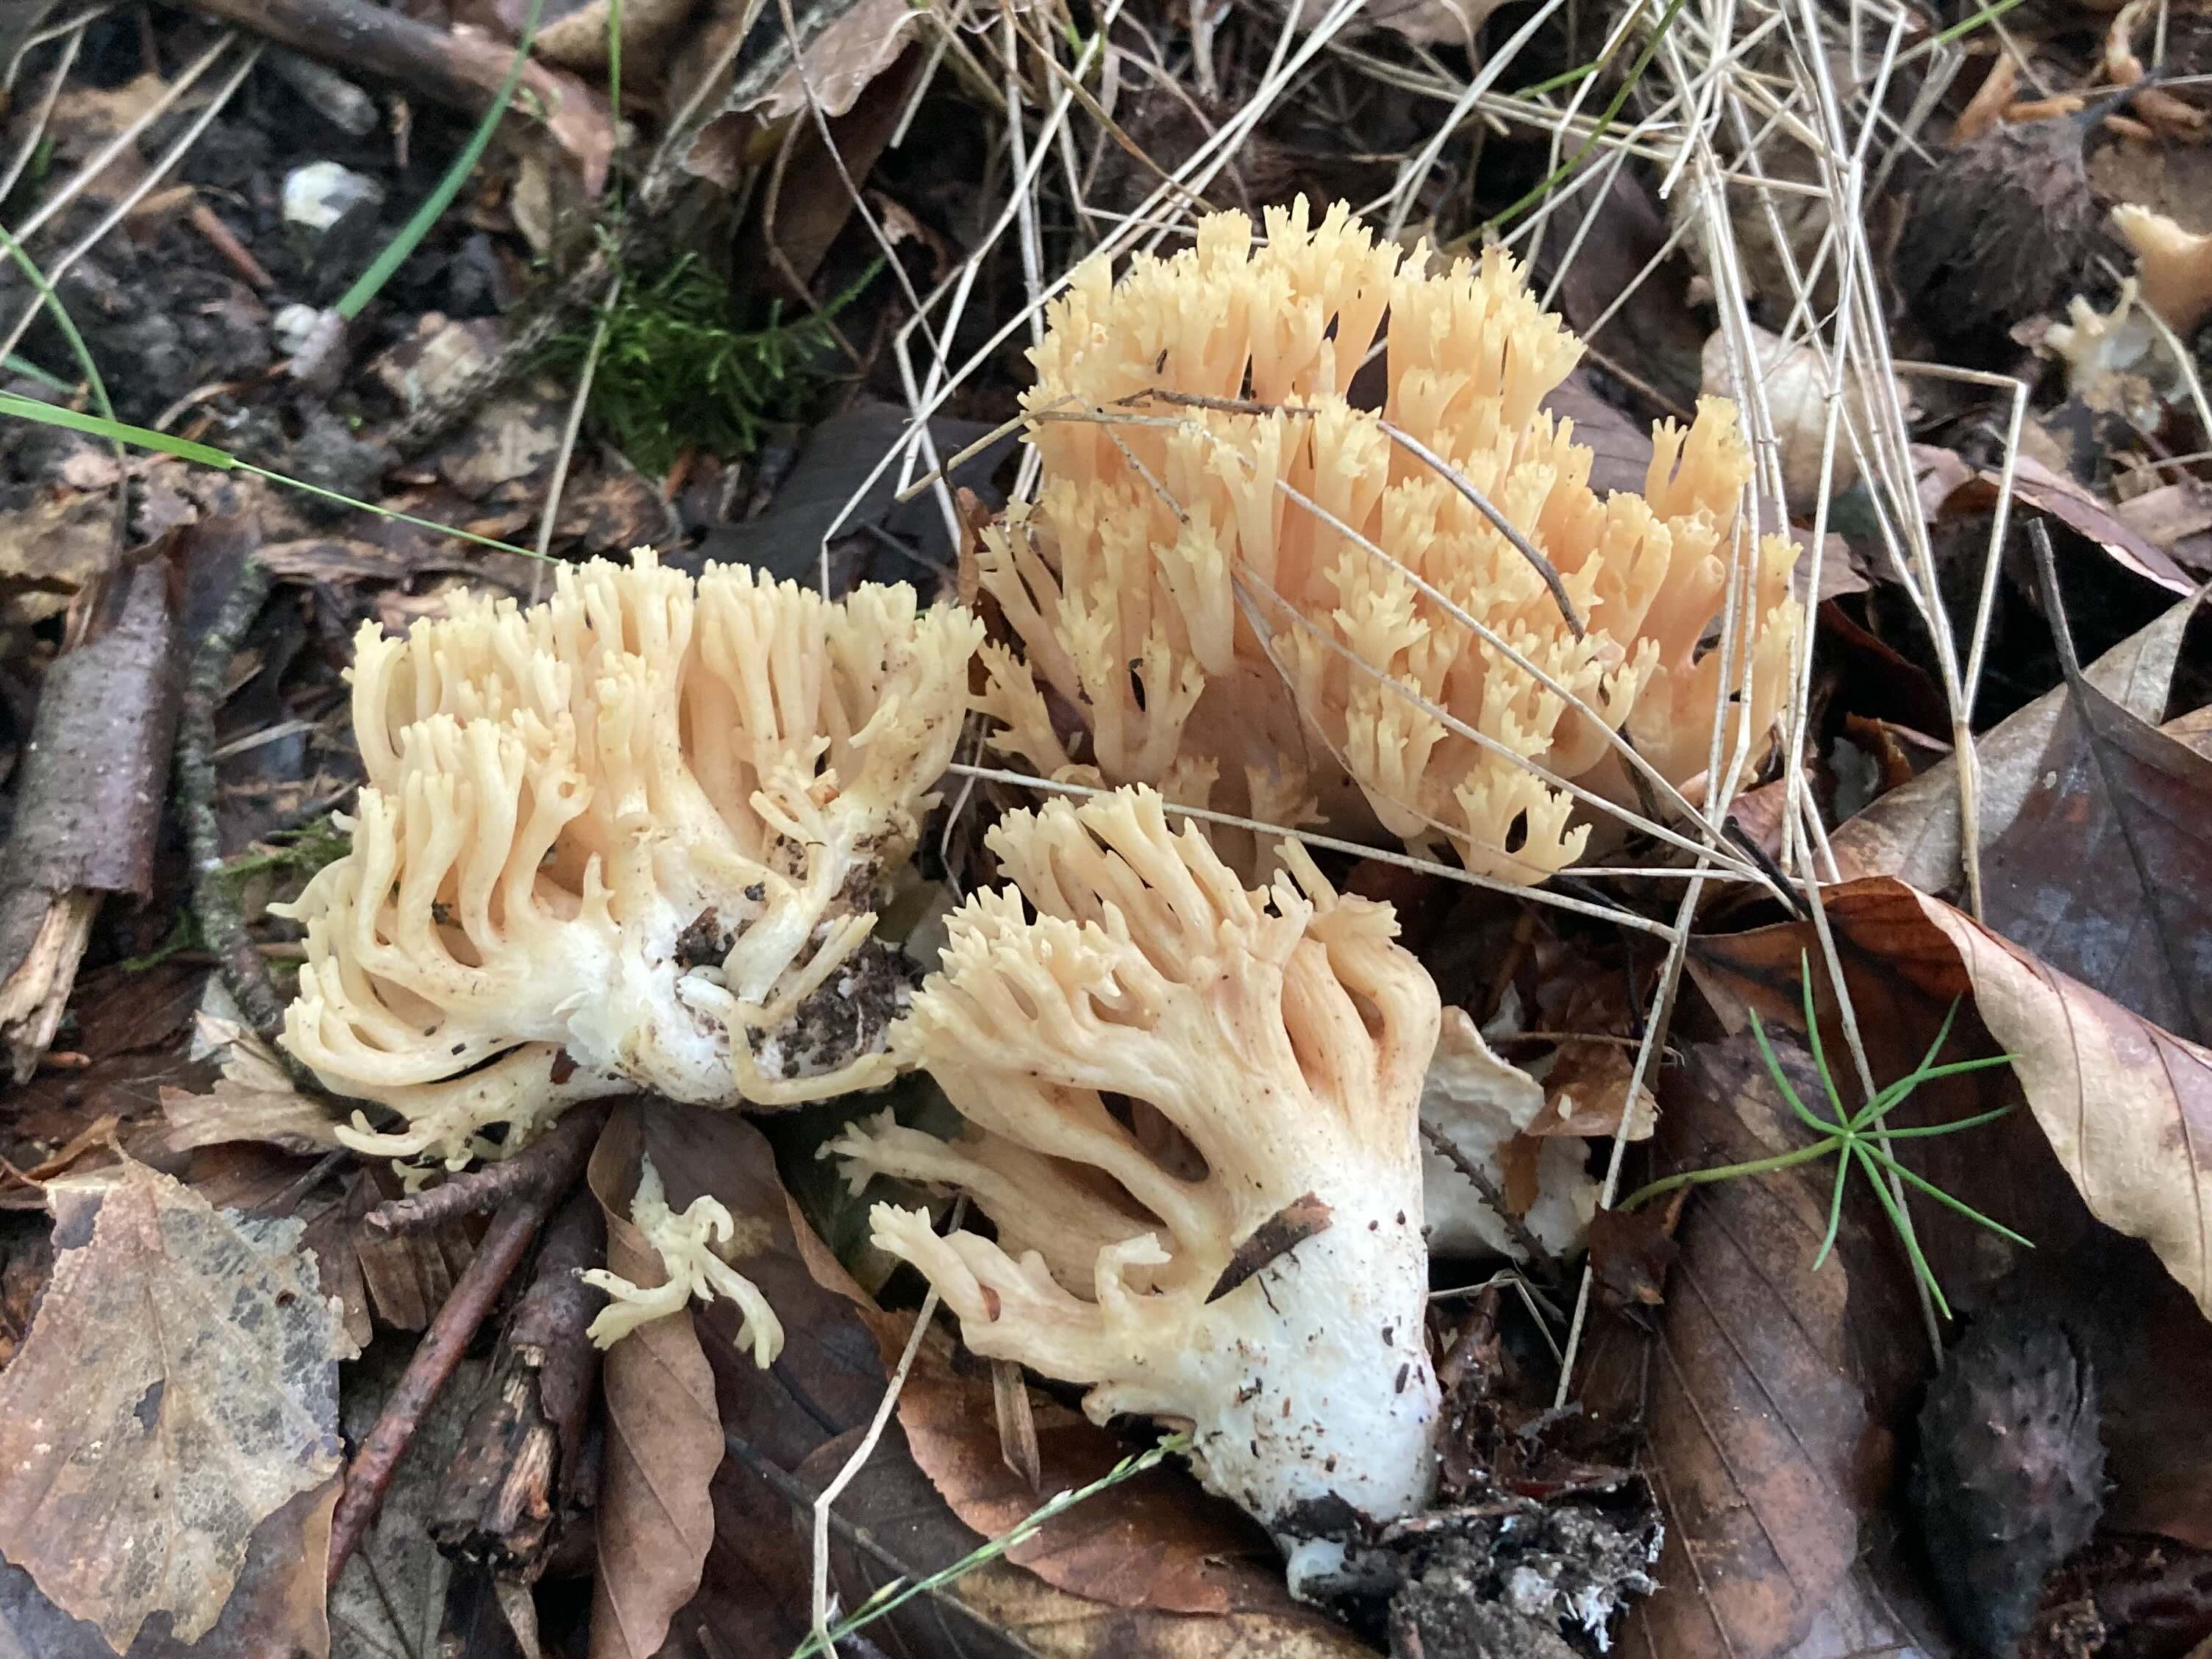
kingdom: Fungi
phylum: Basidiomycota
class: Agaricomycetes
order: Gomphales
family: Gomphaceae
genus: Ramaria
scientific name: Ramaria
